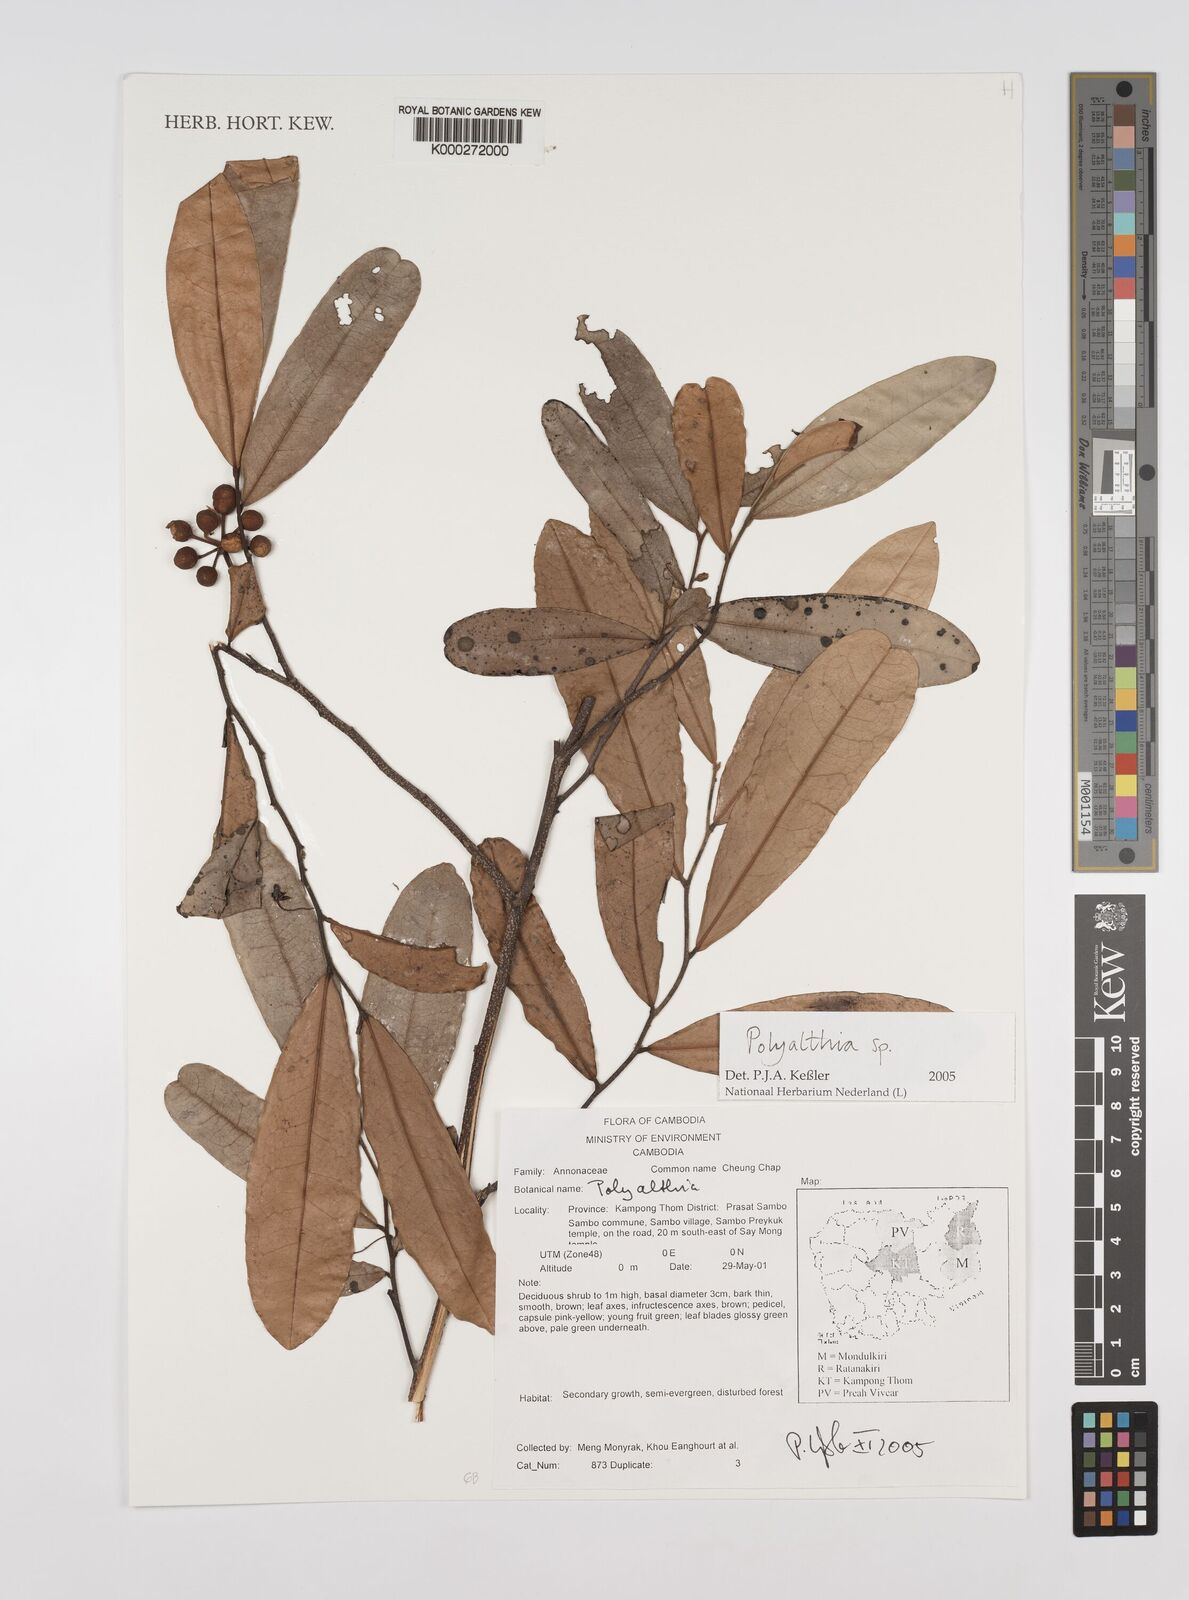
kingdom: Plantae
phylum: Tracheophyta
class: Magnoliopsida
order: Magnoliales
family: Annonaceae
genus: Polyalthia
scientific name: Polyalthia
